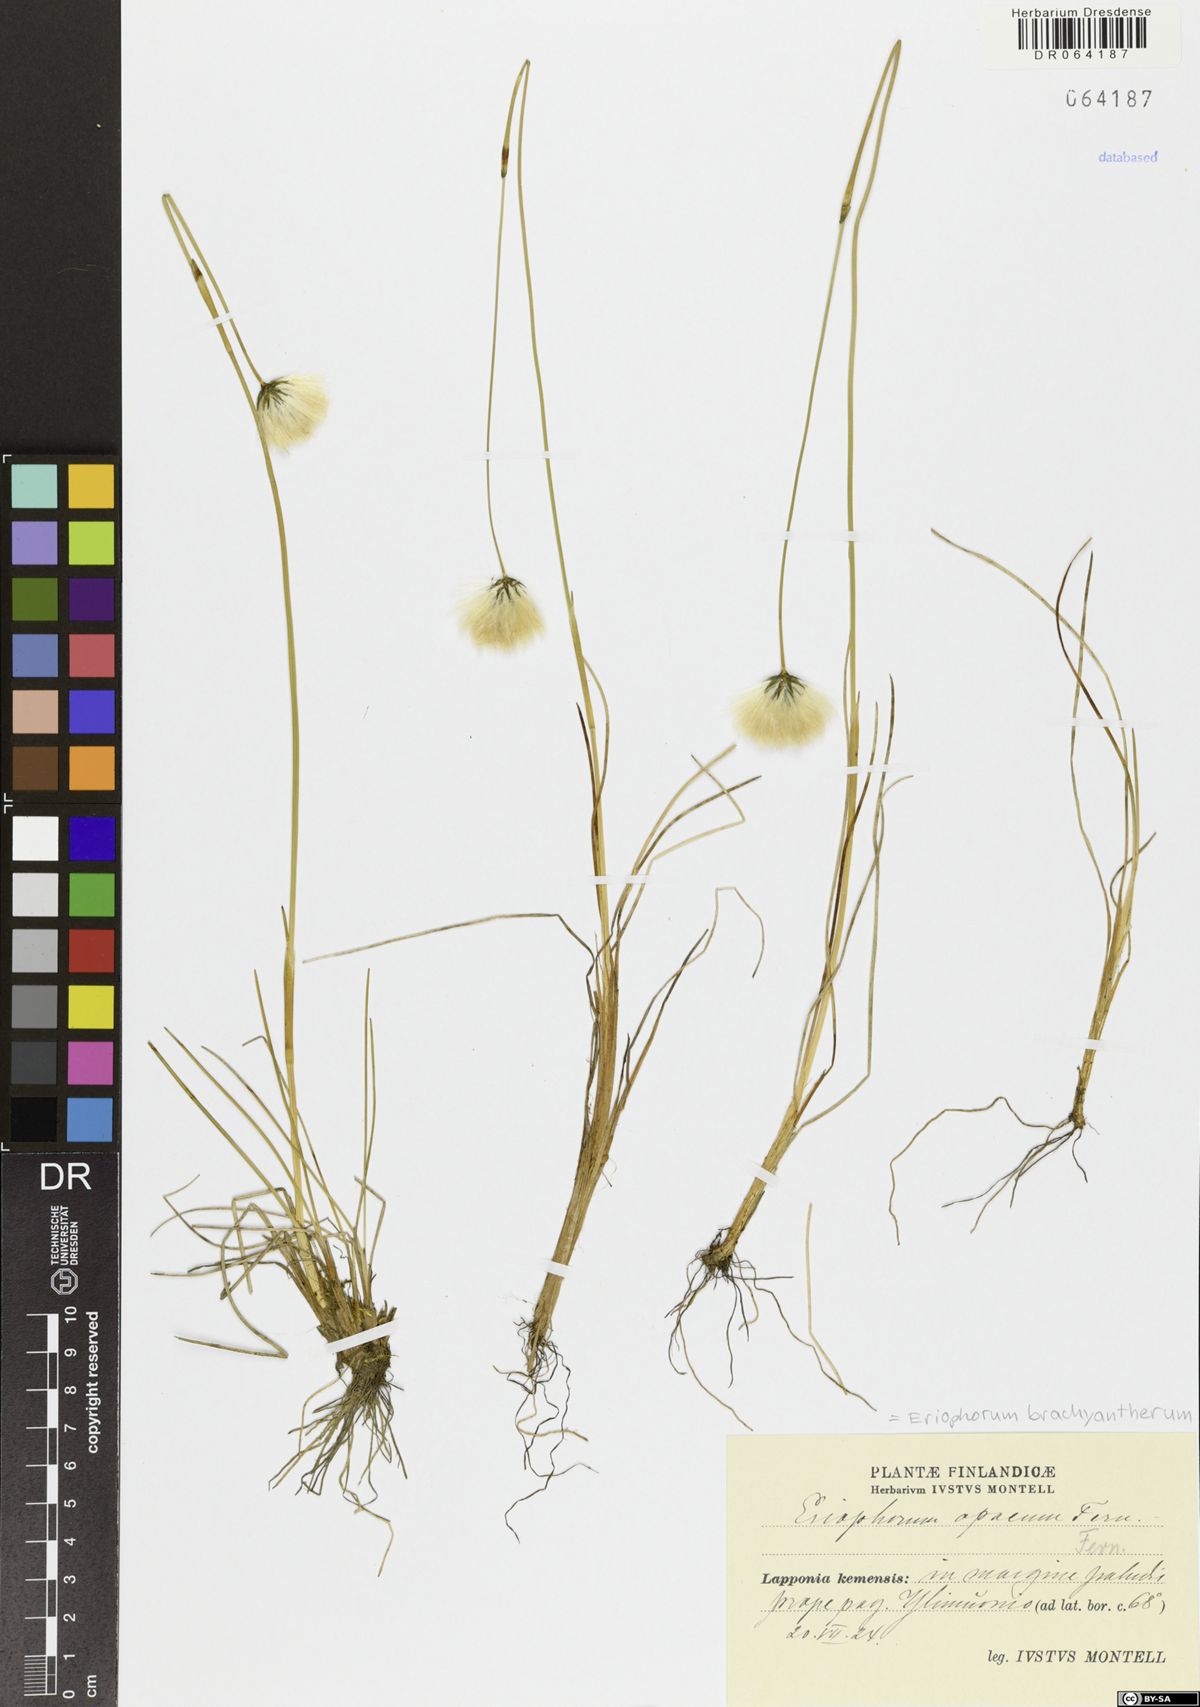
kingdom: Plantae
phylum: Tracheophyta
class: Liliopsida
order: Poales
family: Cyperaceae
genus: Eriophorum
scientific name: Eriophorum brachyantherum
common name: Closed-sheathed cottongrass
